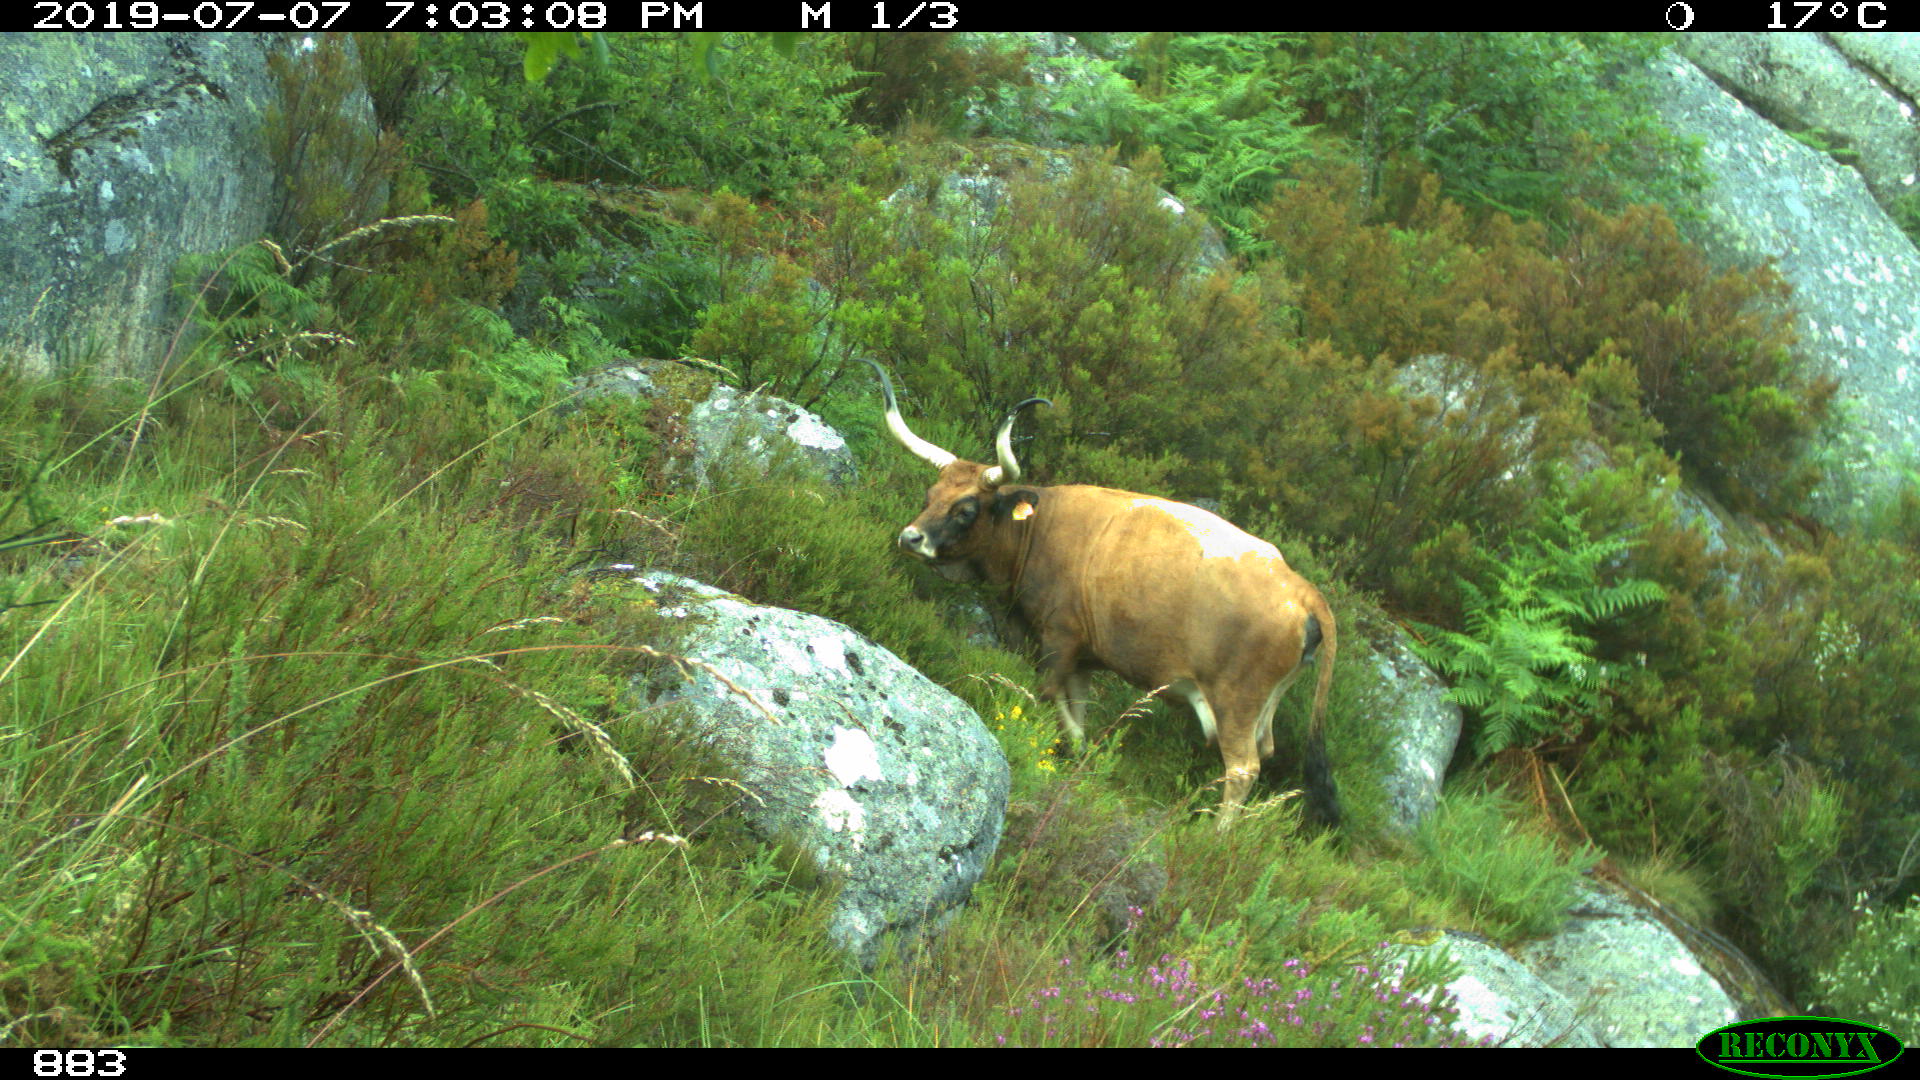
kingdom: Animalia
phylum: Chordata
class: Mammalia
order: Artiodactyla
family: Bovidae
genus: Bos
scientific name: Bos taurus
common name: Domesticated cattle
